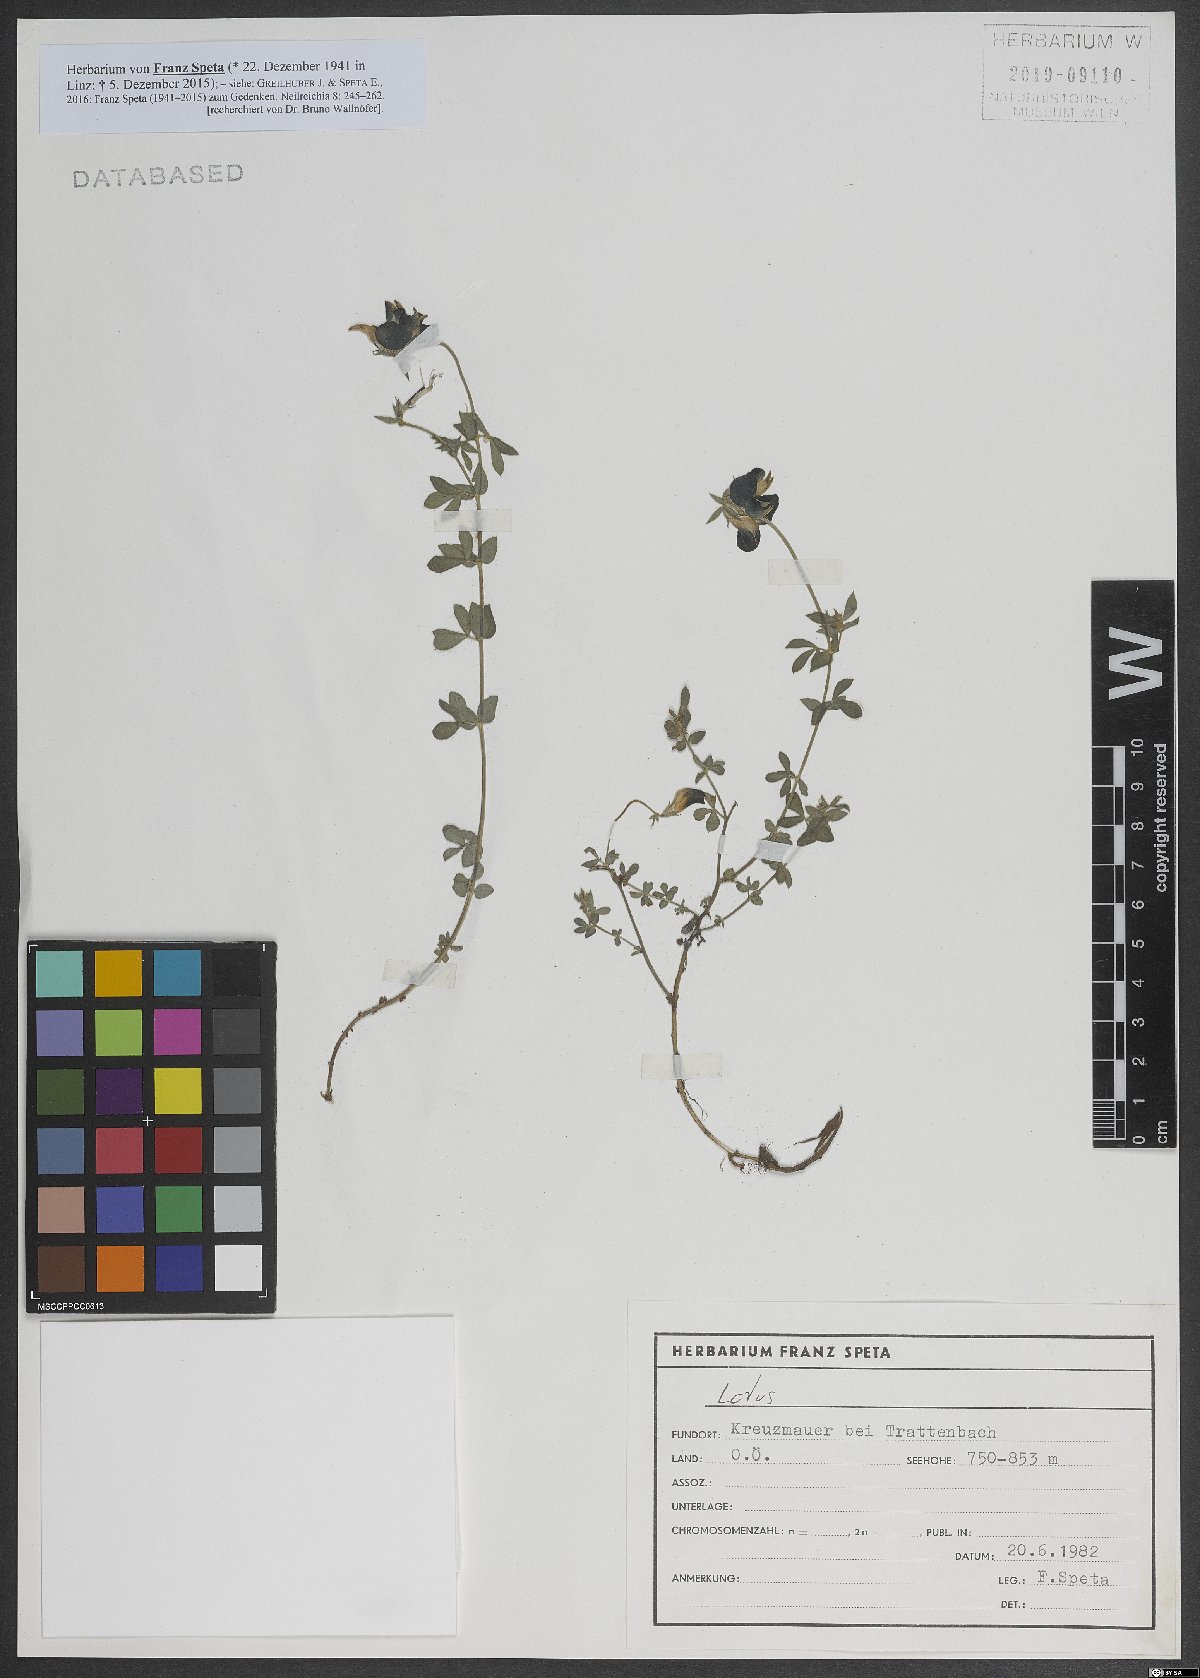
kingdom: Plantae
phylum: Tracheophyta
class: Magnoliopsida
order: Fabales
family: Fabaceae
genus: Lotus
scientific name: Lotus
